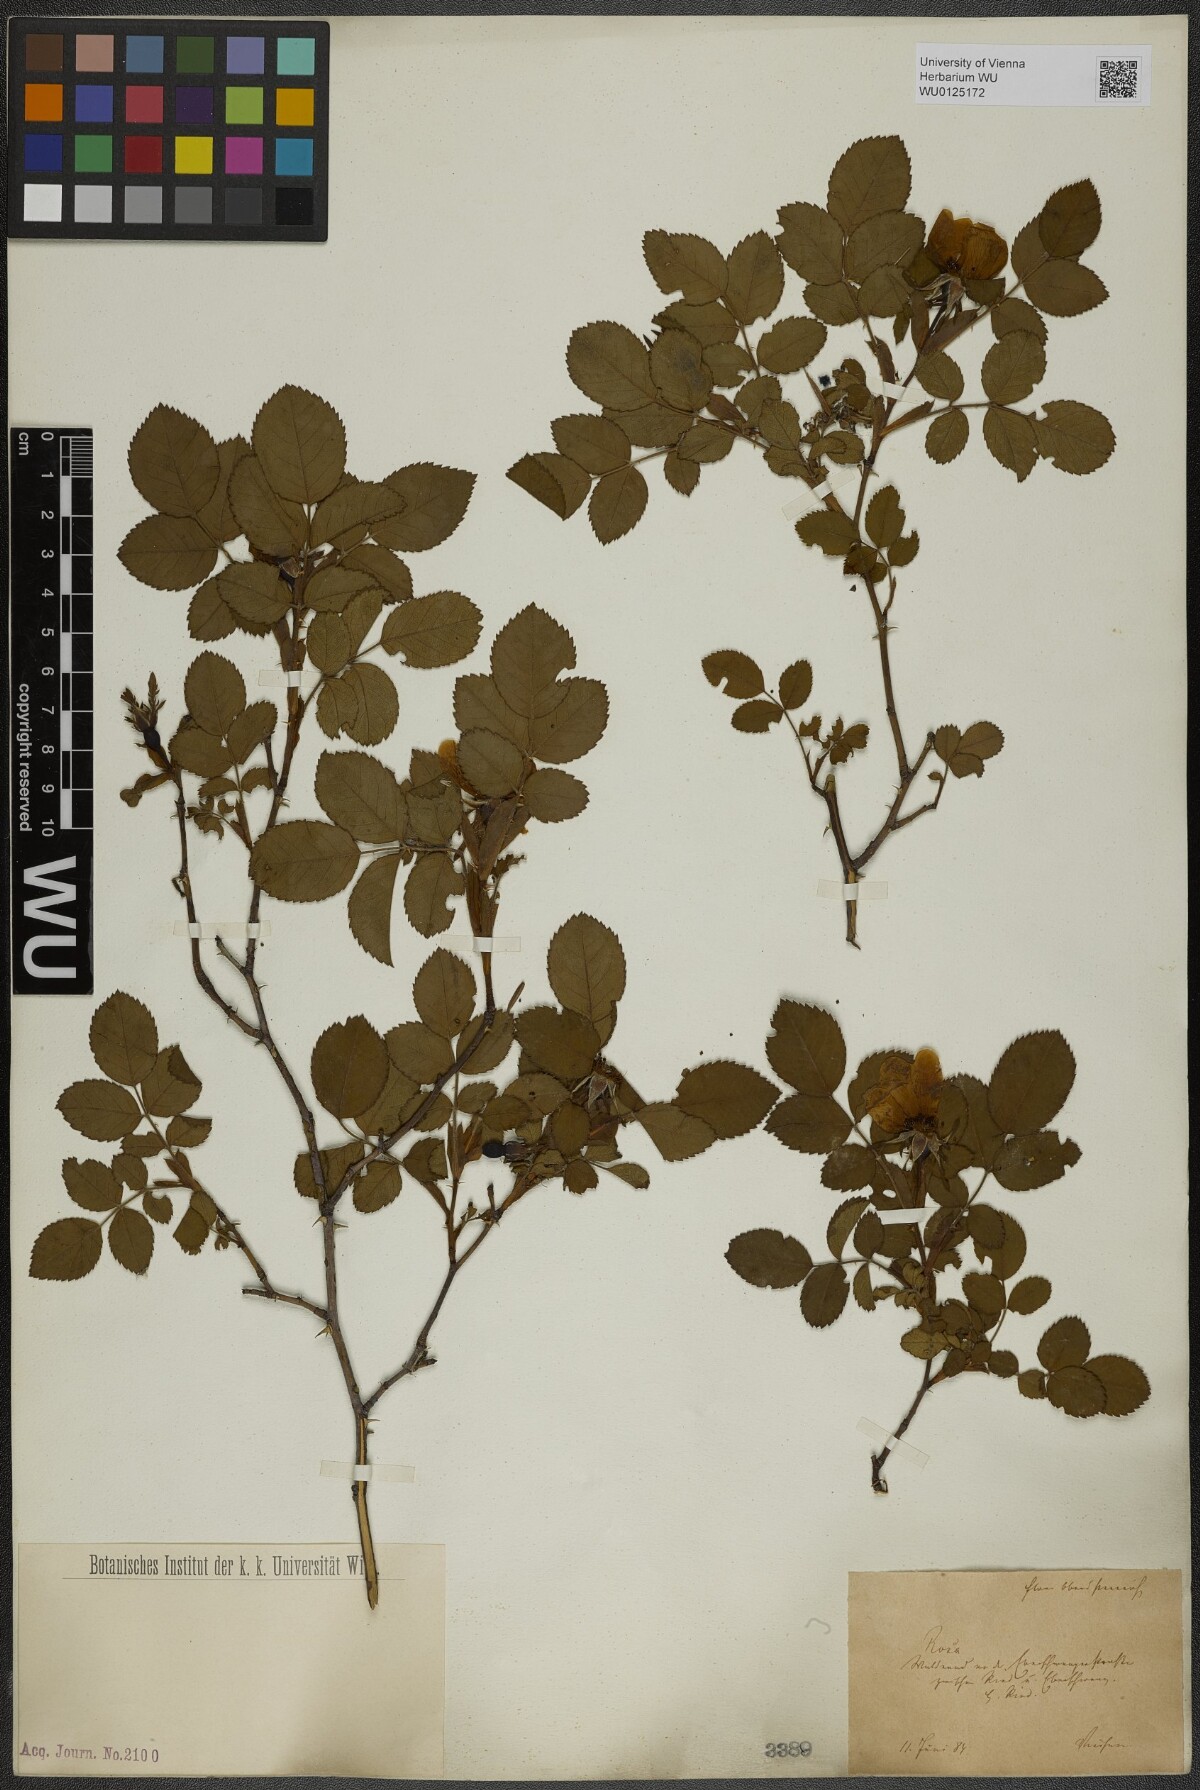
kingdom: Plantae
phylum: Tracheophyta
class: Magnoliopsida
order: Rosales
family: Rosaceae
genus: Rosa
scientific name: Rosa
